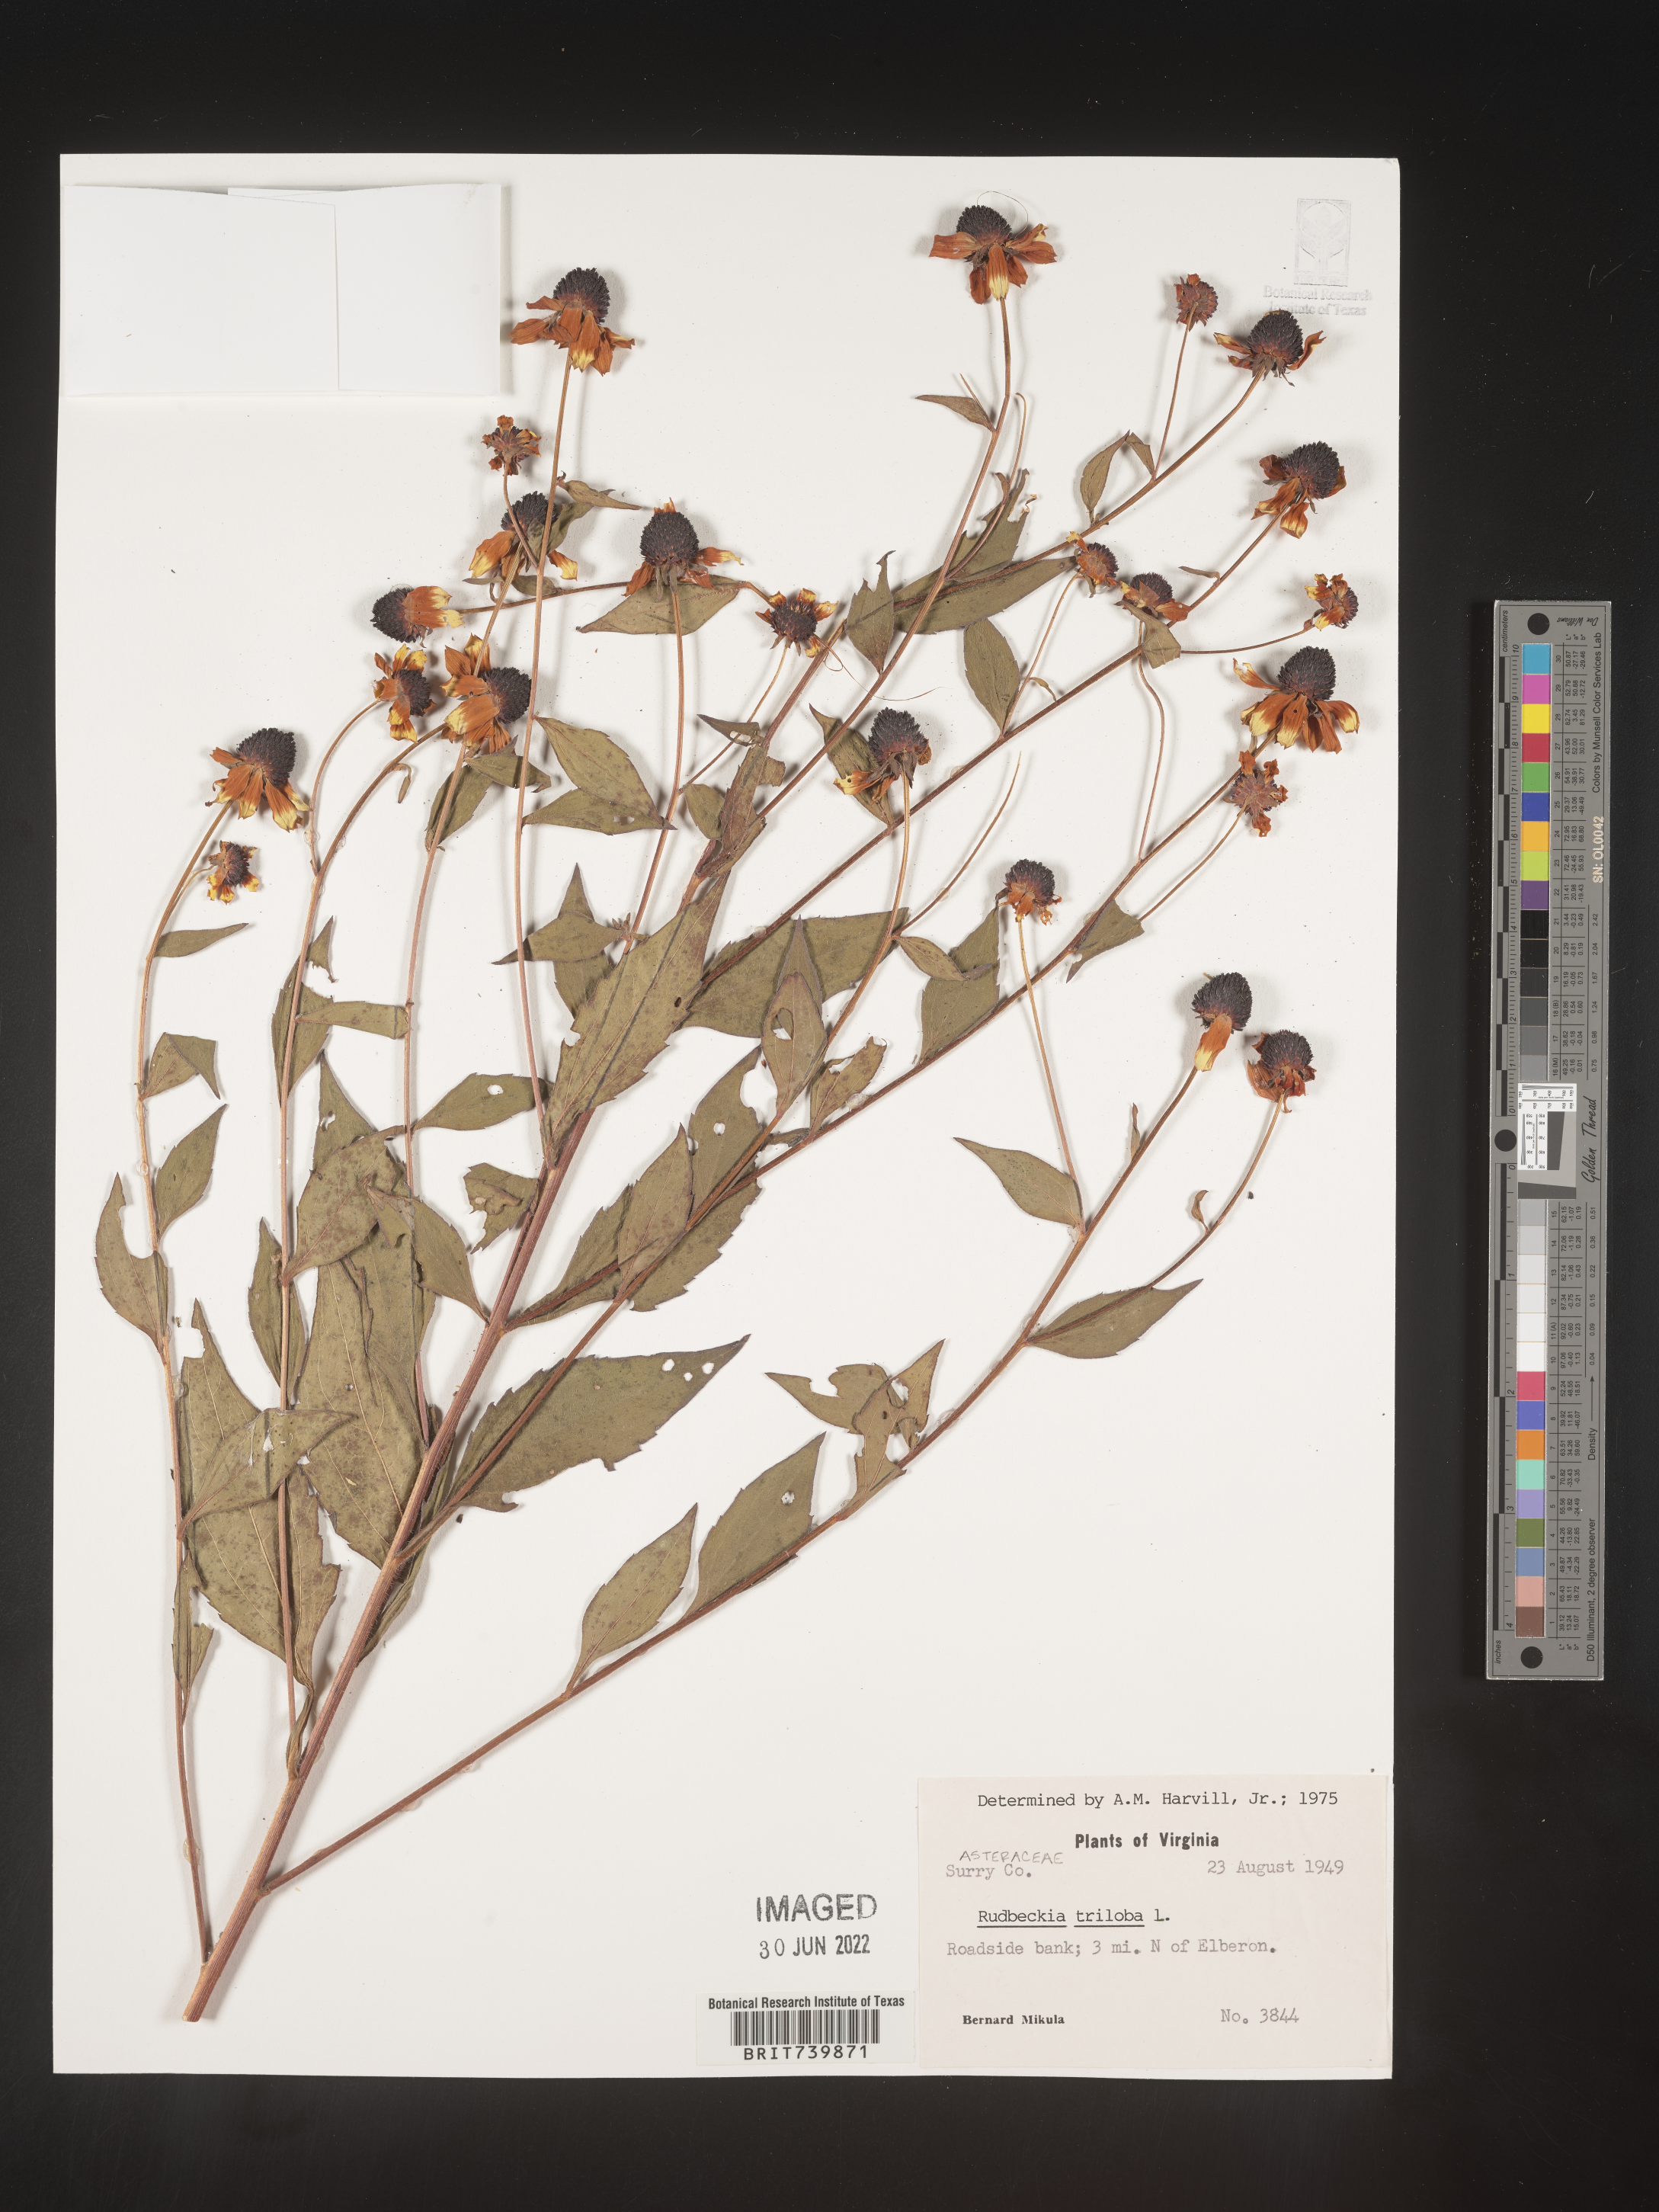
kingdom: Plantae
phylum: Tracheophyta
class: Magnoliopsida
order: Asterales
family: Asteraceae
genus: Rudbeckia
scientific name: Rudbeckia triloba
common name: Thin-leaved coneflower
